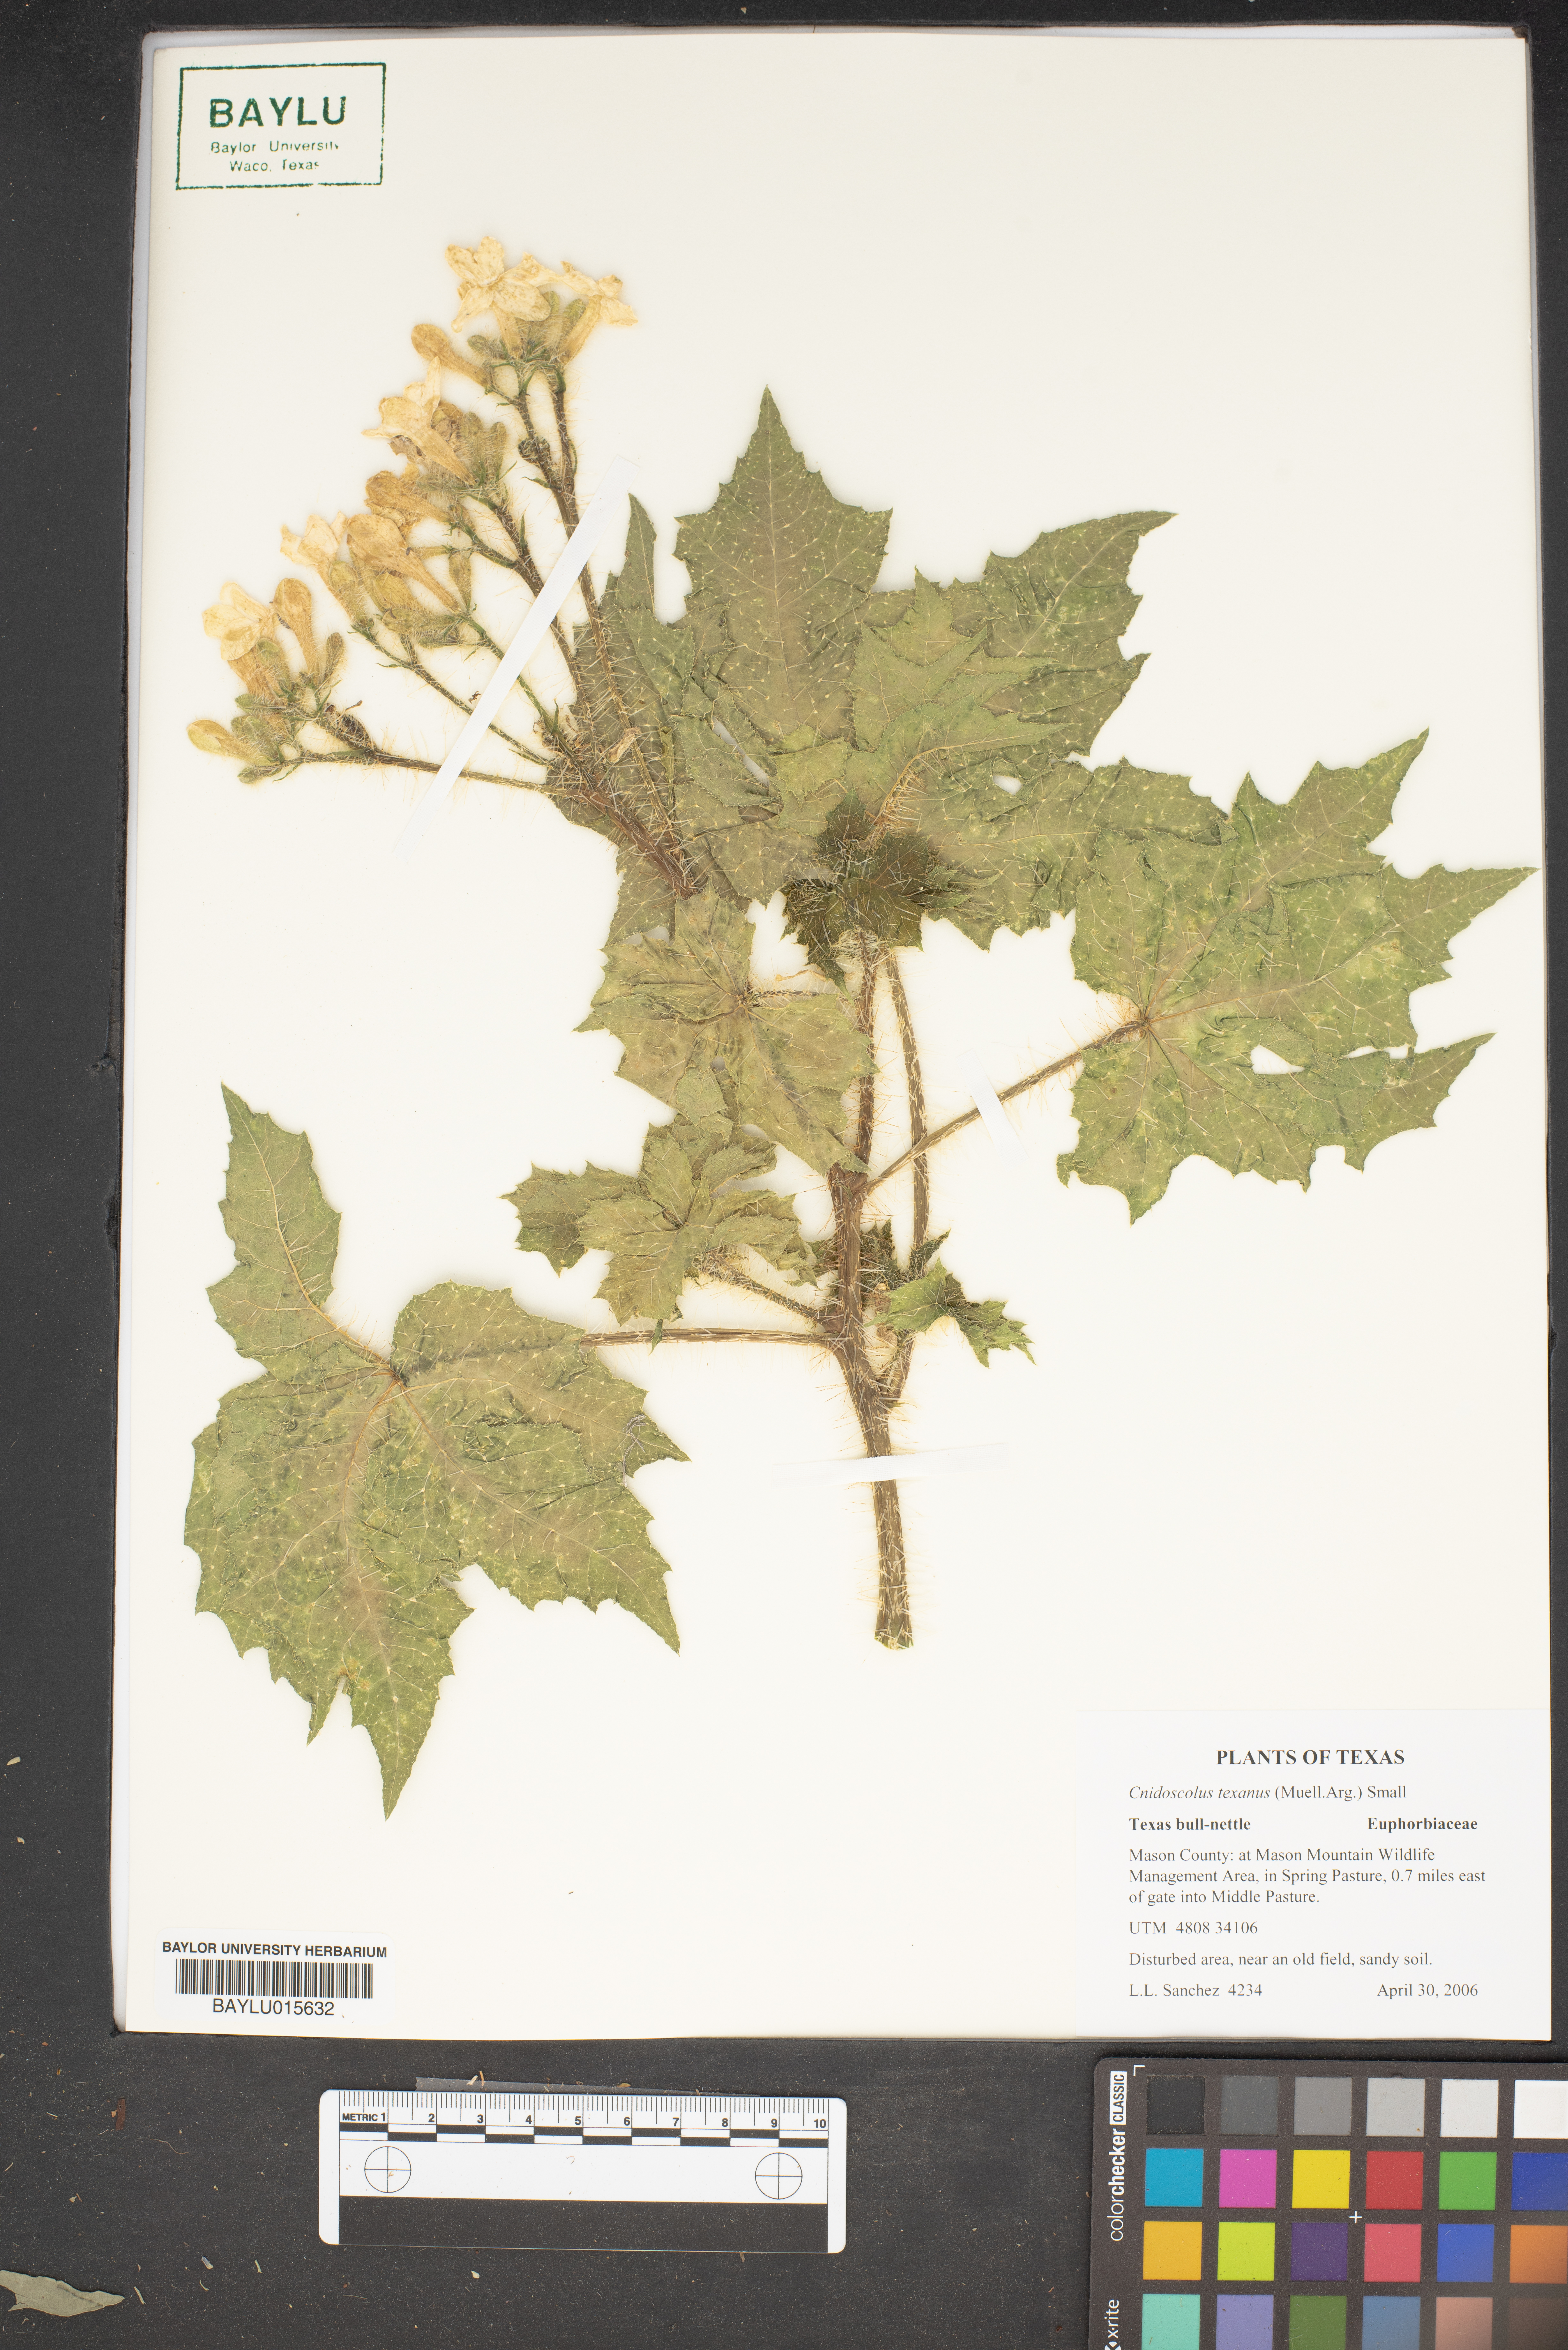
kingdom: Plantae
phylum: Tracheophyta
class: Magnoliopsida
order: Malpighiales
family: Euphorbiaceae
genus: Cnidoscolus
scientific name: Cnidoscolus texanus
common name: Texas bull-nettle
